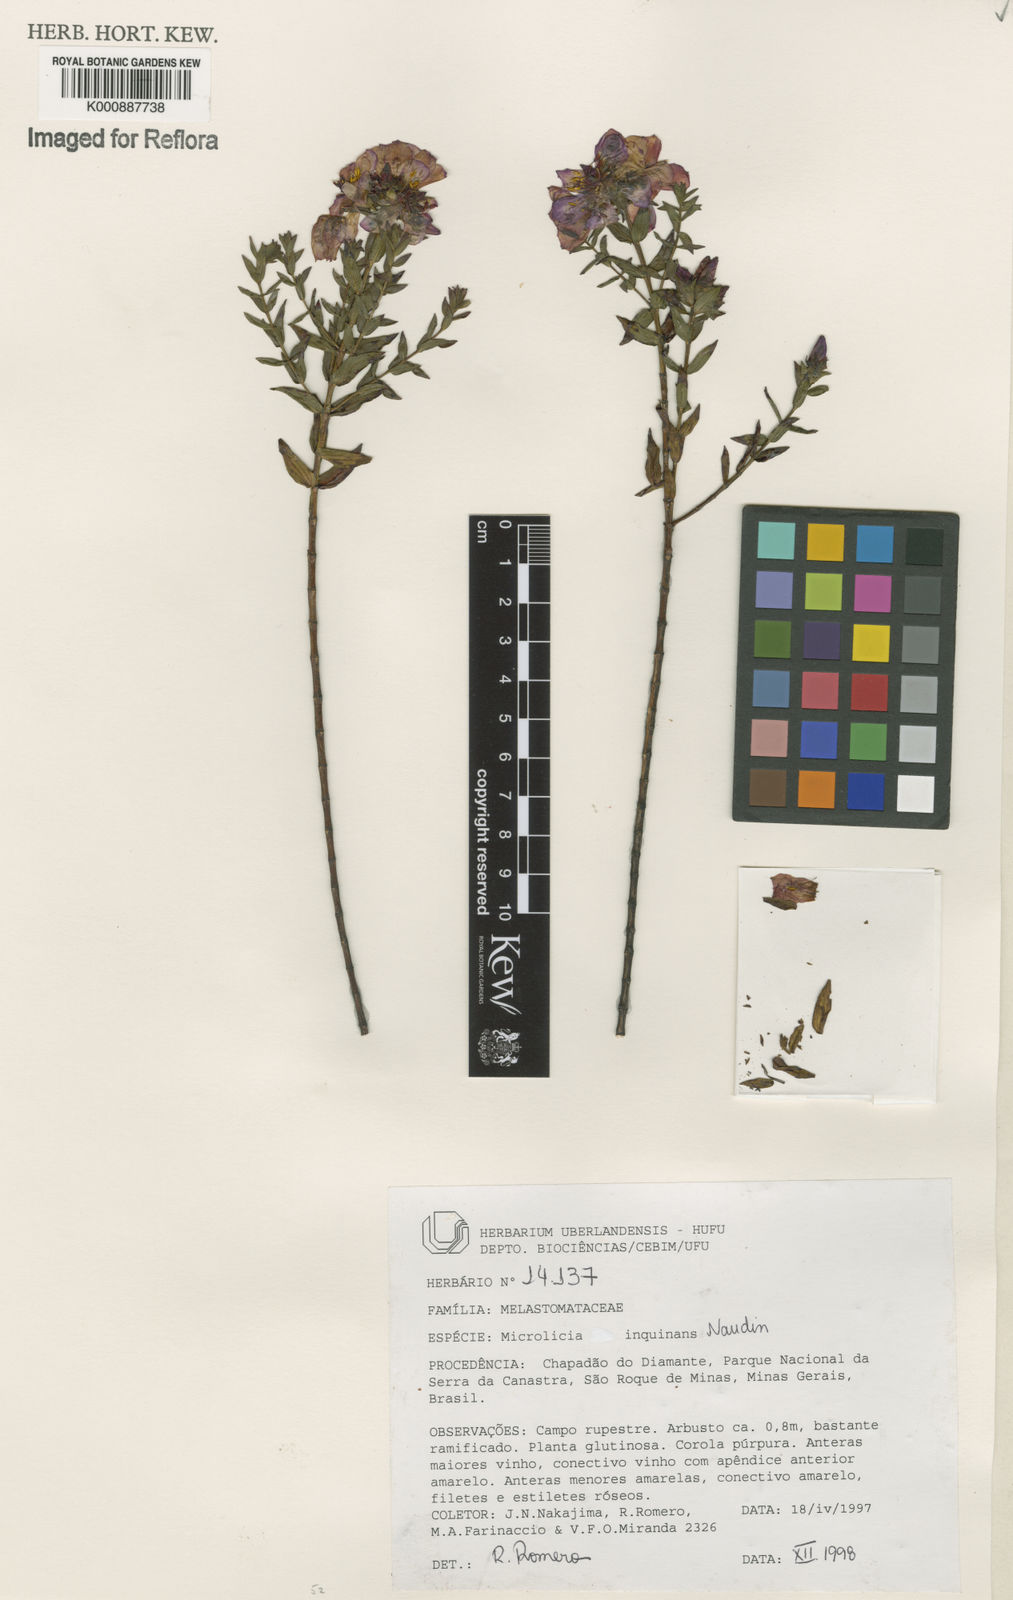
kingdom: Plantae
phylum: Tracheophyta
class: Magnoliopsida
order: Myrtales
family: Melastomataceae
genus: Microlicia
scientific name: Microlicia inquinans
